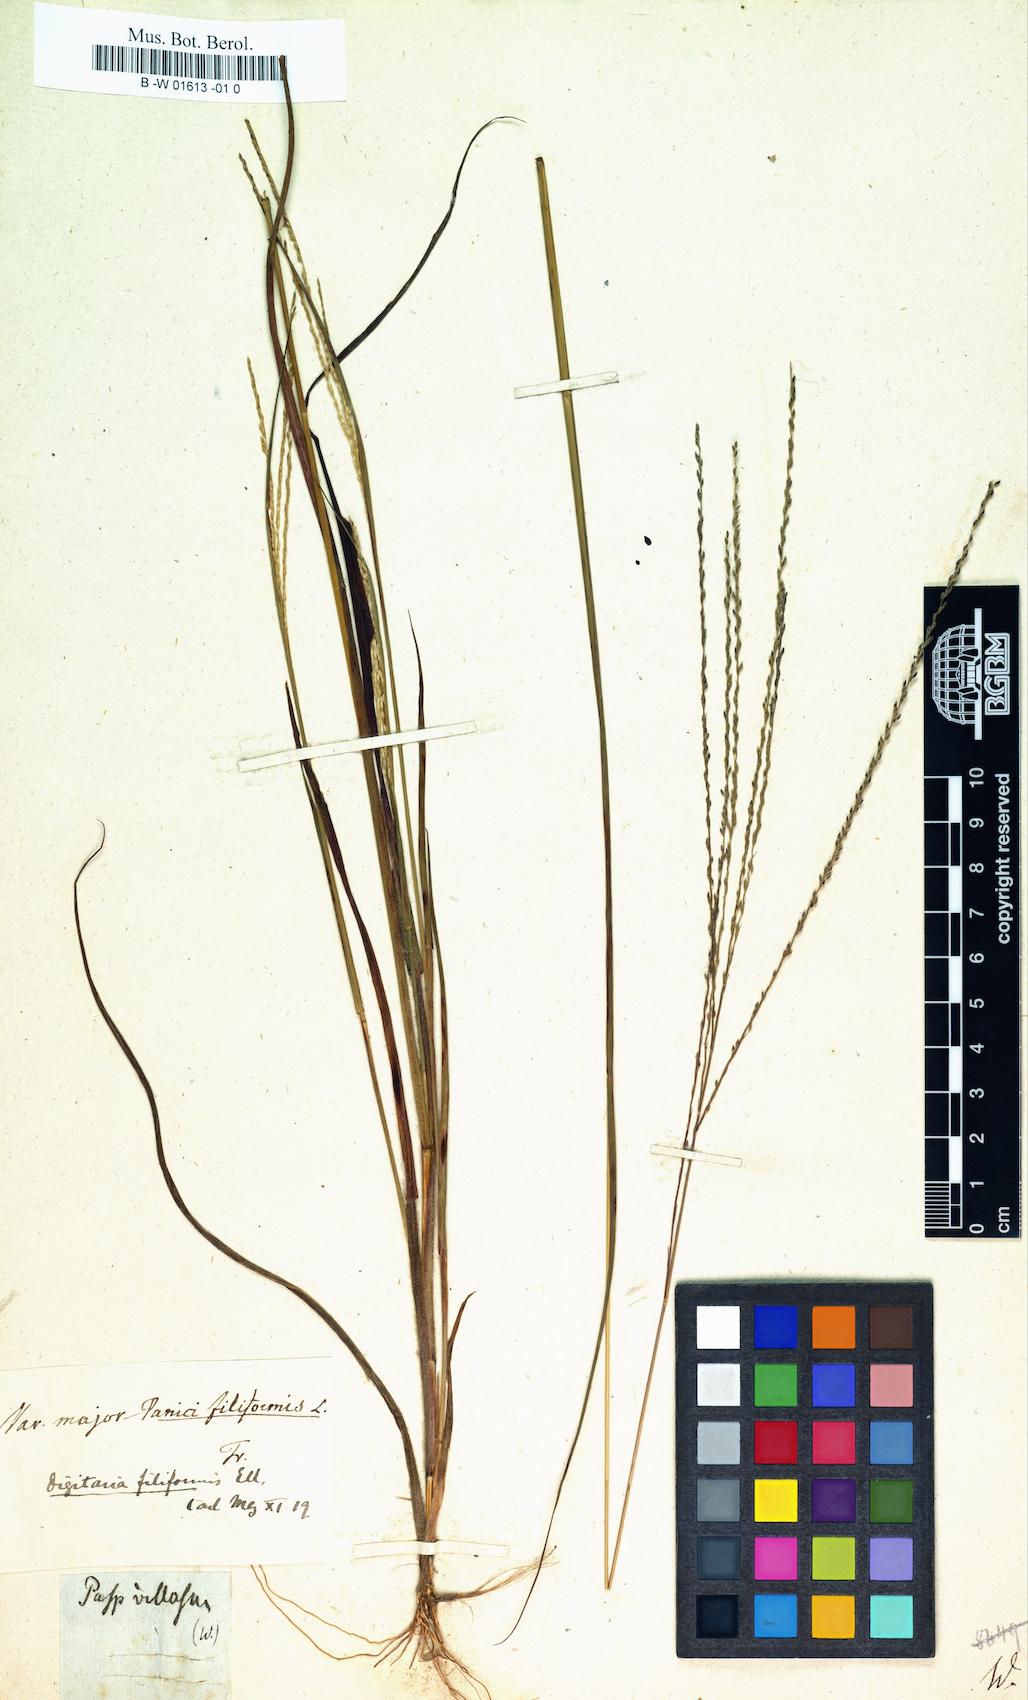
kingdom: Plantae
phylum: Tracheophyta
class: Liliopsida
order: Poales
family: Poaceae
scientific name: Poaceae
